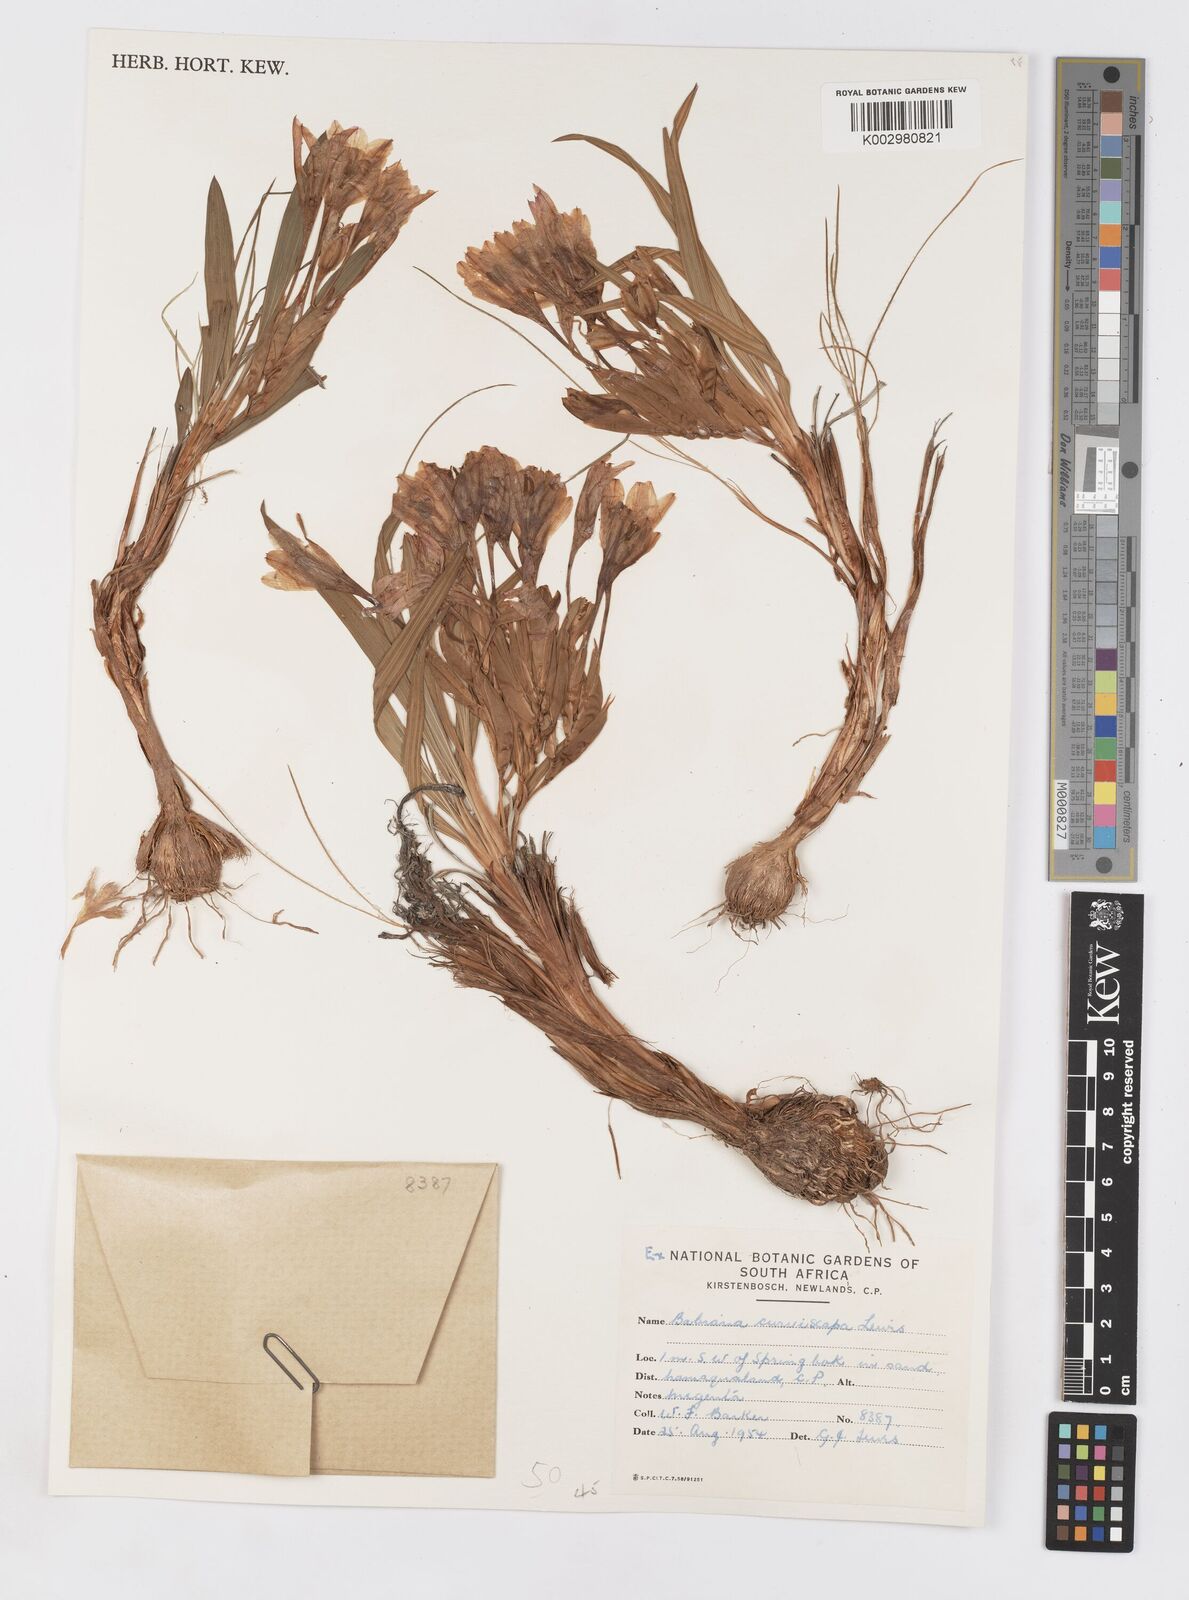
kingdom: Plantae
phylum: Tracheophyta
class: Liliopsida
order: Asparagales
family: Iridaceae
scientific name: Iridaceae
